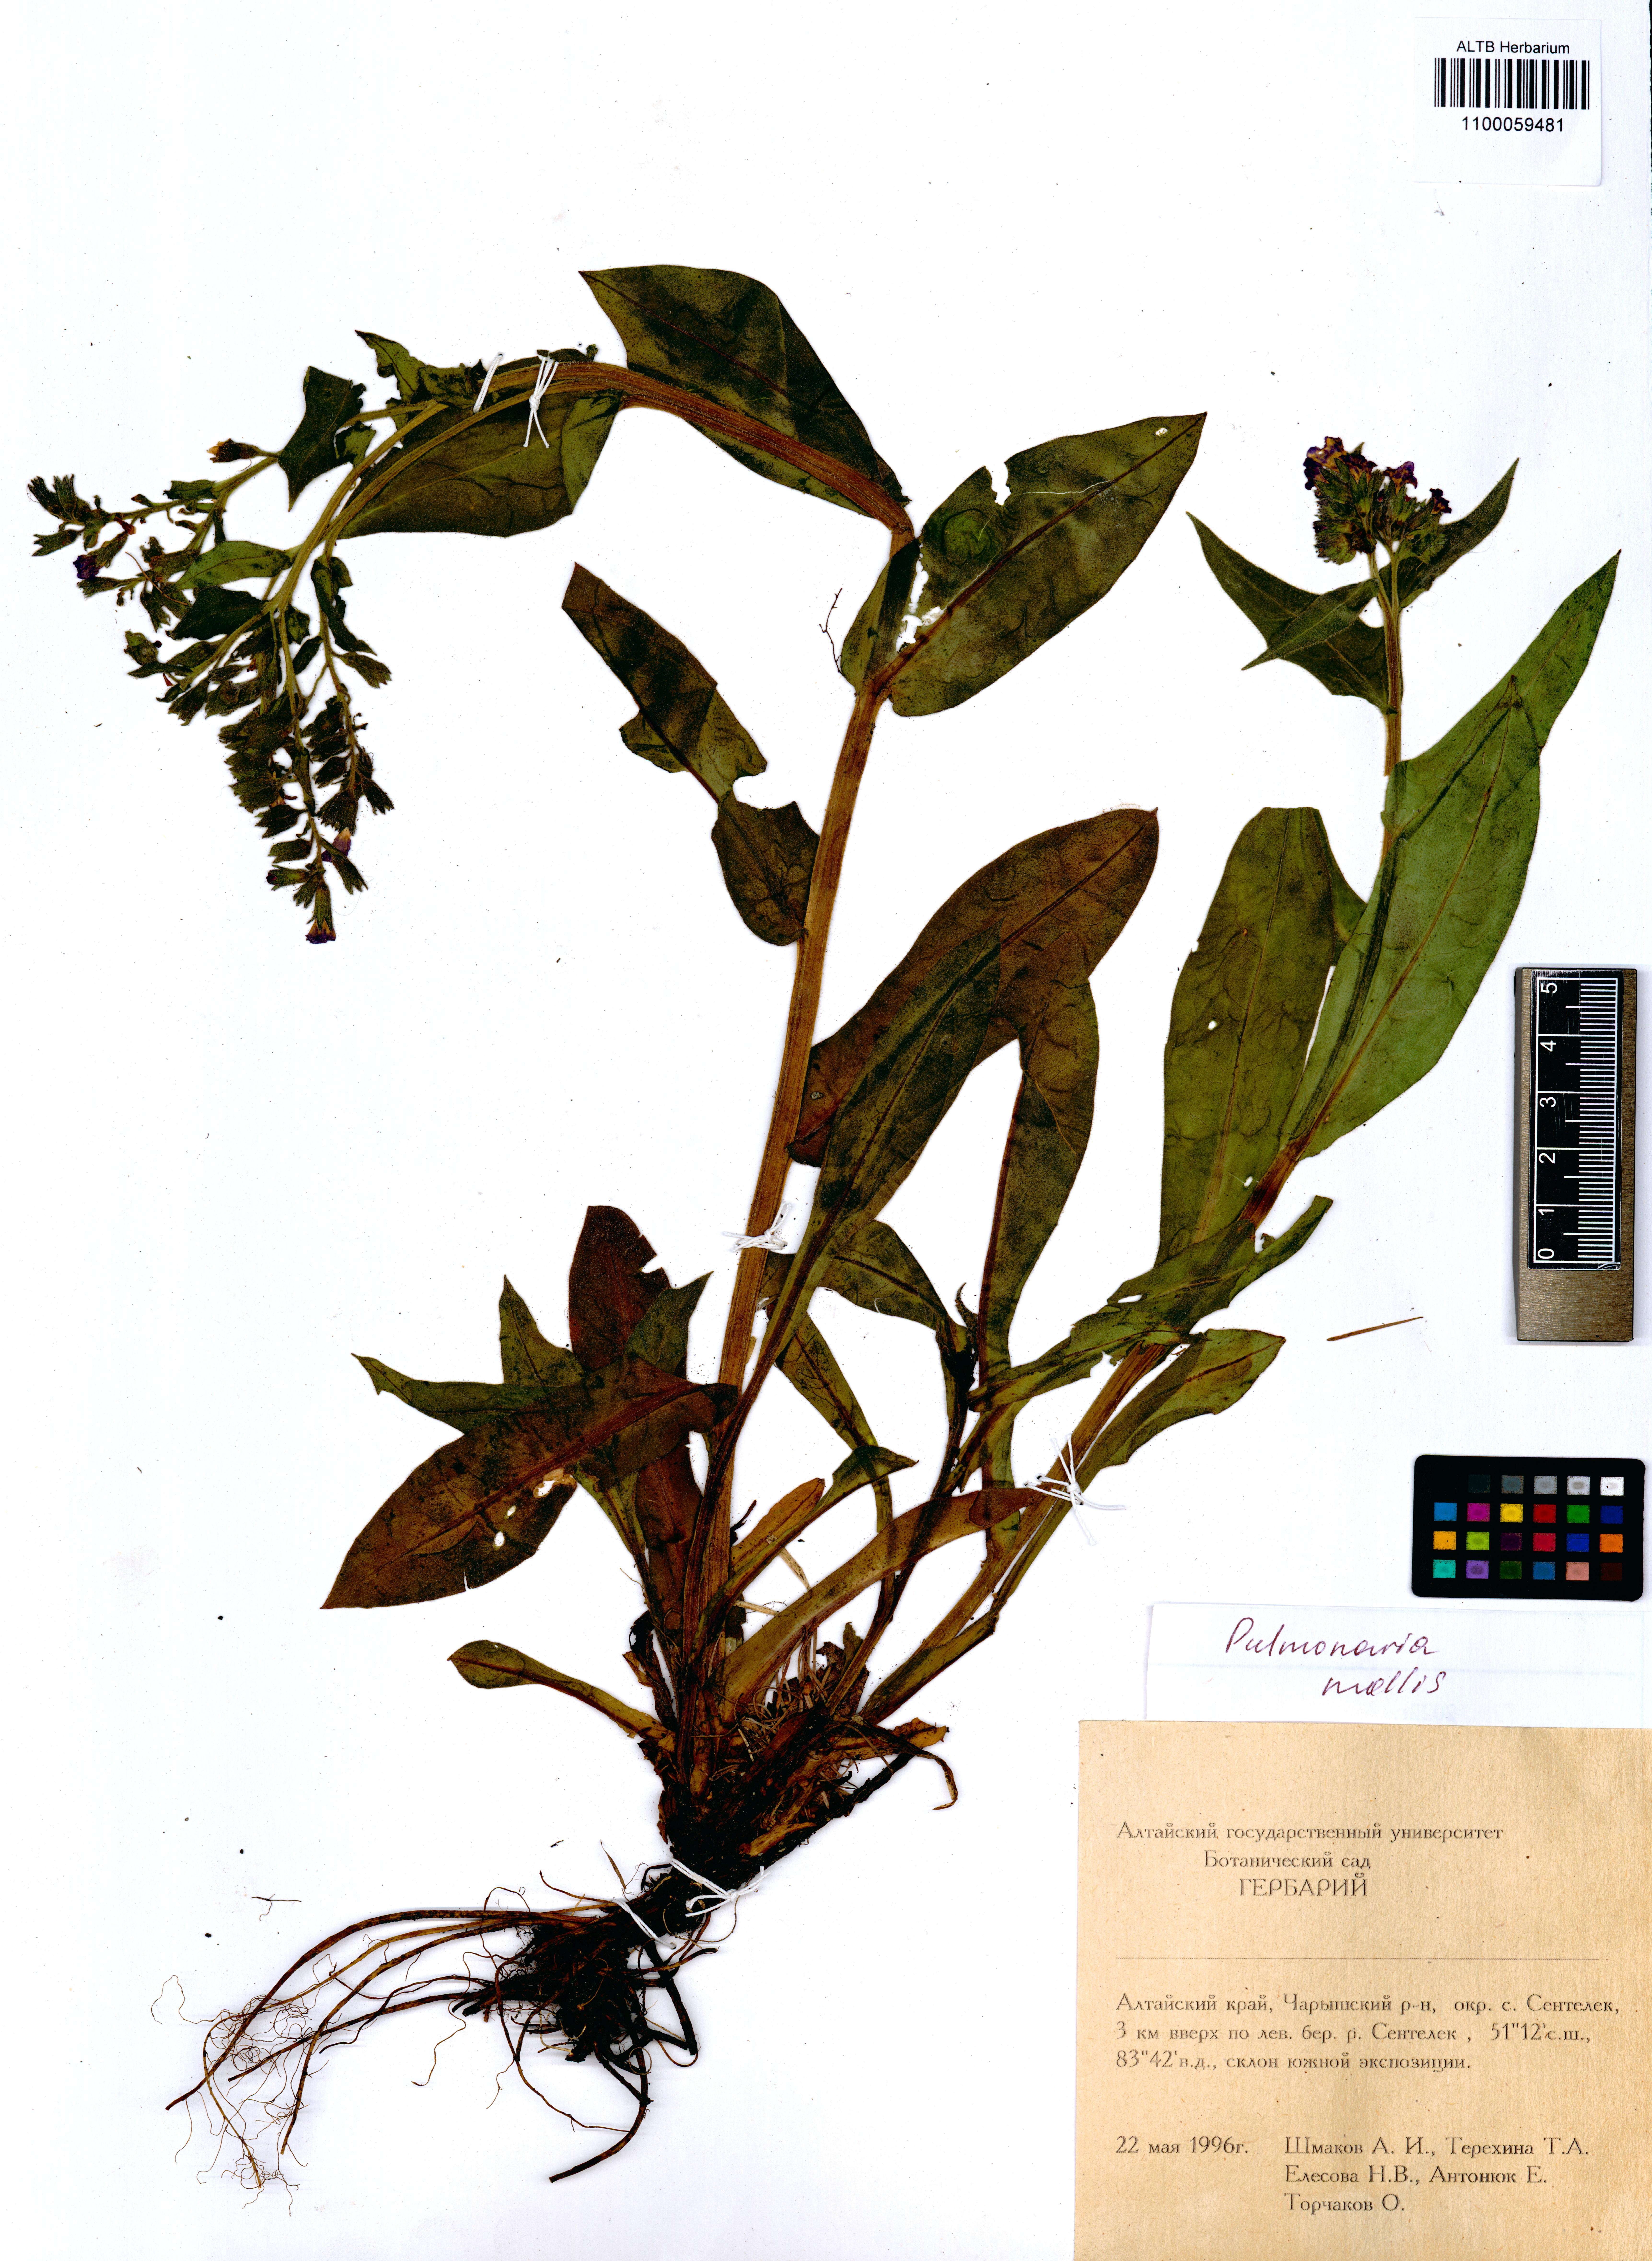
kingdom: Plantae
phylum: Tracheophyta
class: Magnoliopsida
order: Boraginales
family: Boraginaceae
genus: Pulmonaria
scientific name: Pulmonaria mollis
